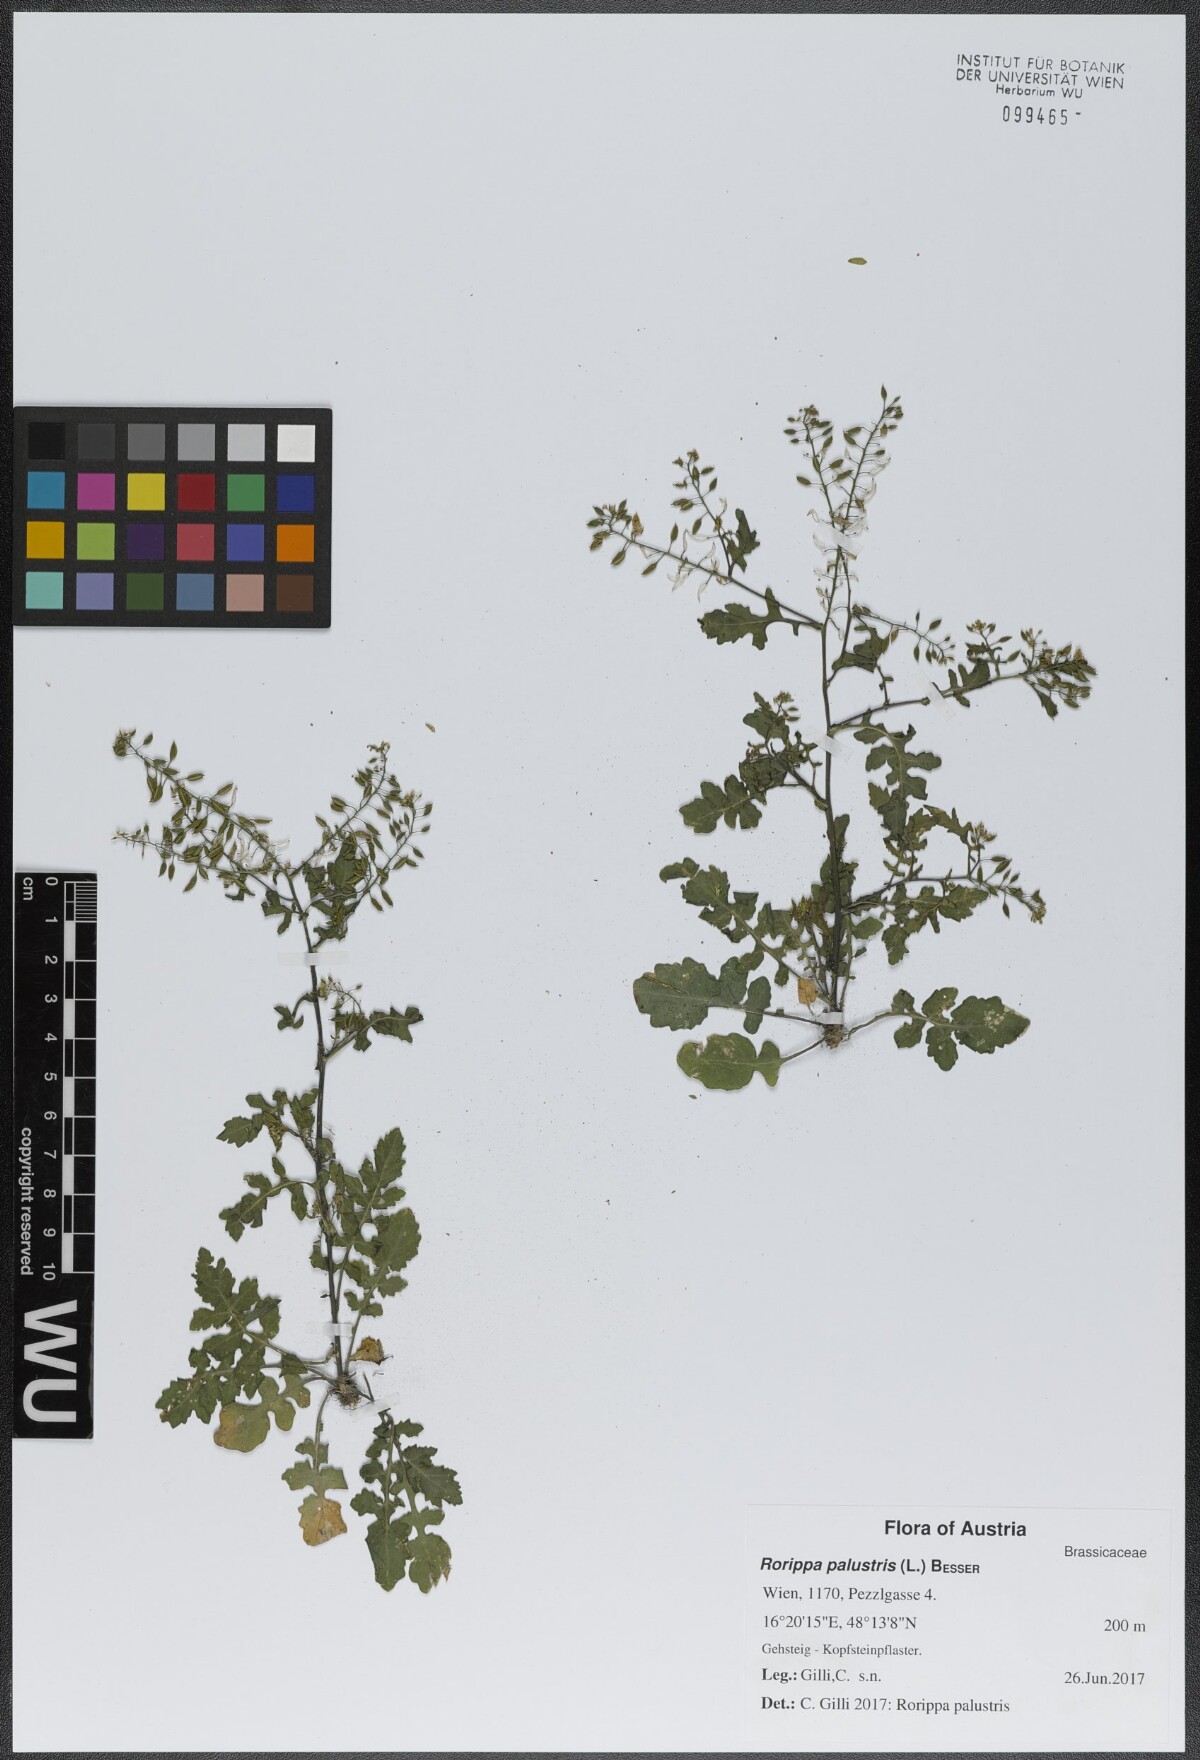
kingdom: Plantae
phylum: Tracheophyta
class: Magnoliopsida
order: Brassicales
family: Brassicaceae
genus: Rorippa
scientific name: Rorippa palustris
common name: Marsh yellow-cress
